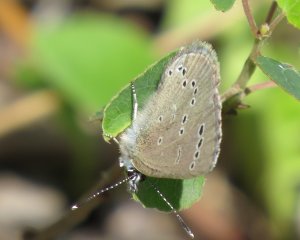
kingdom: Animalia
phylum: Arthropoda
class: Insecta
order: Lepidoptera
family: Lycaenidae
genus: Glaucopsyche
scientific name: Glaucopsyche lygdamus
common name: Silvery Blue
